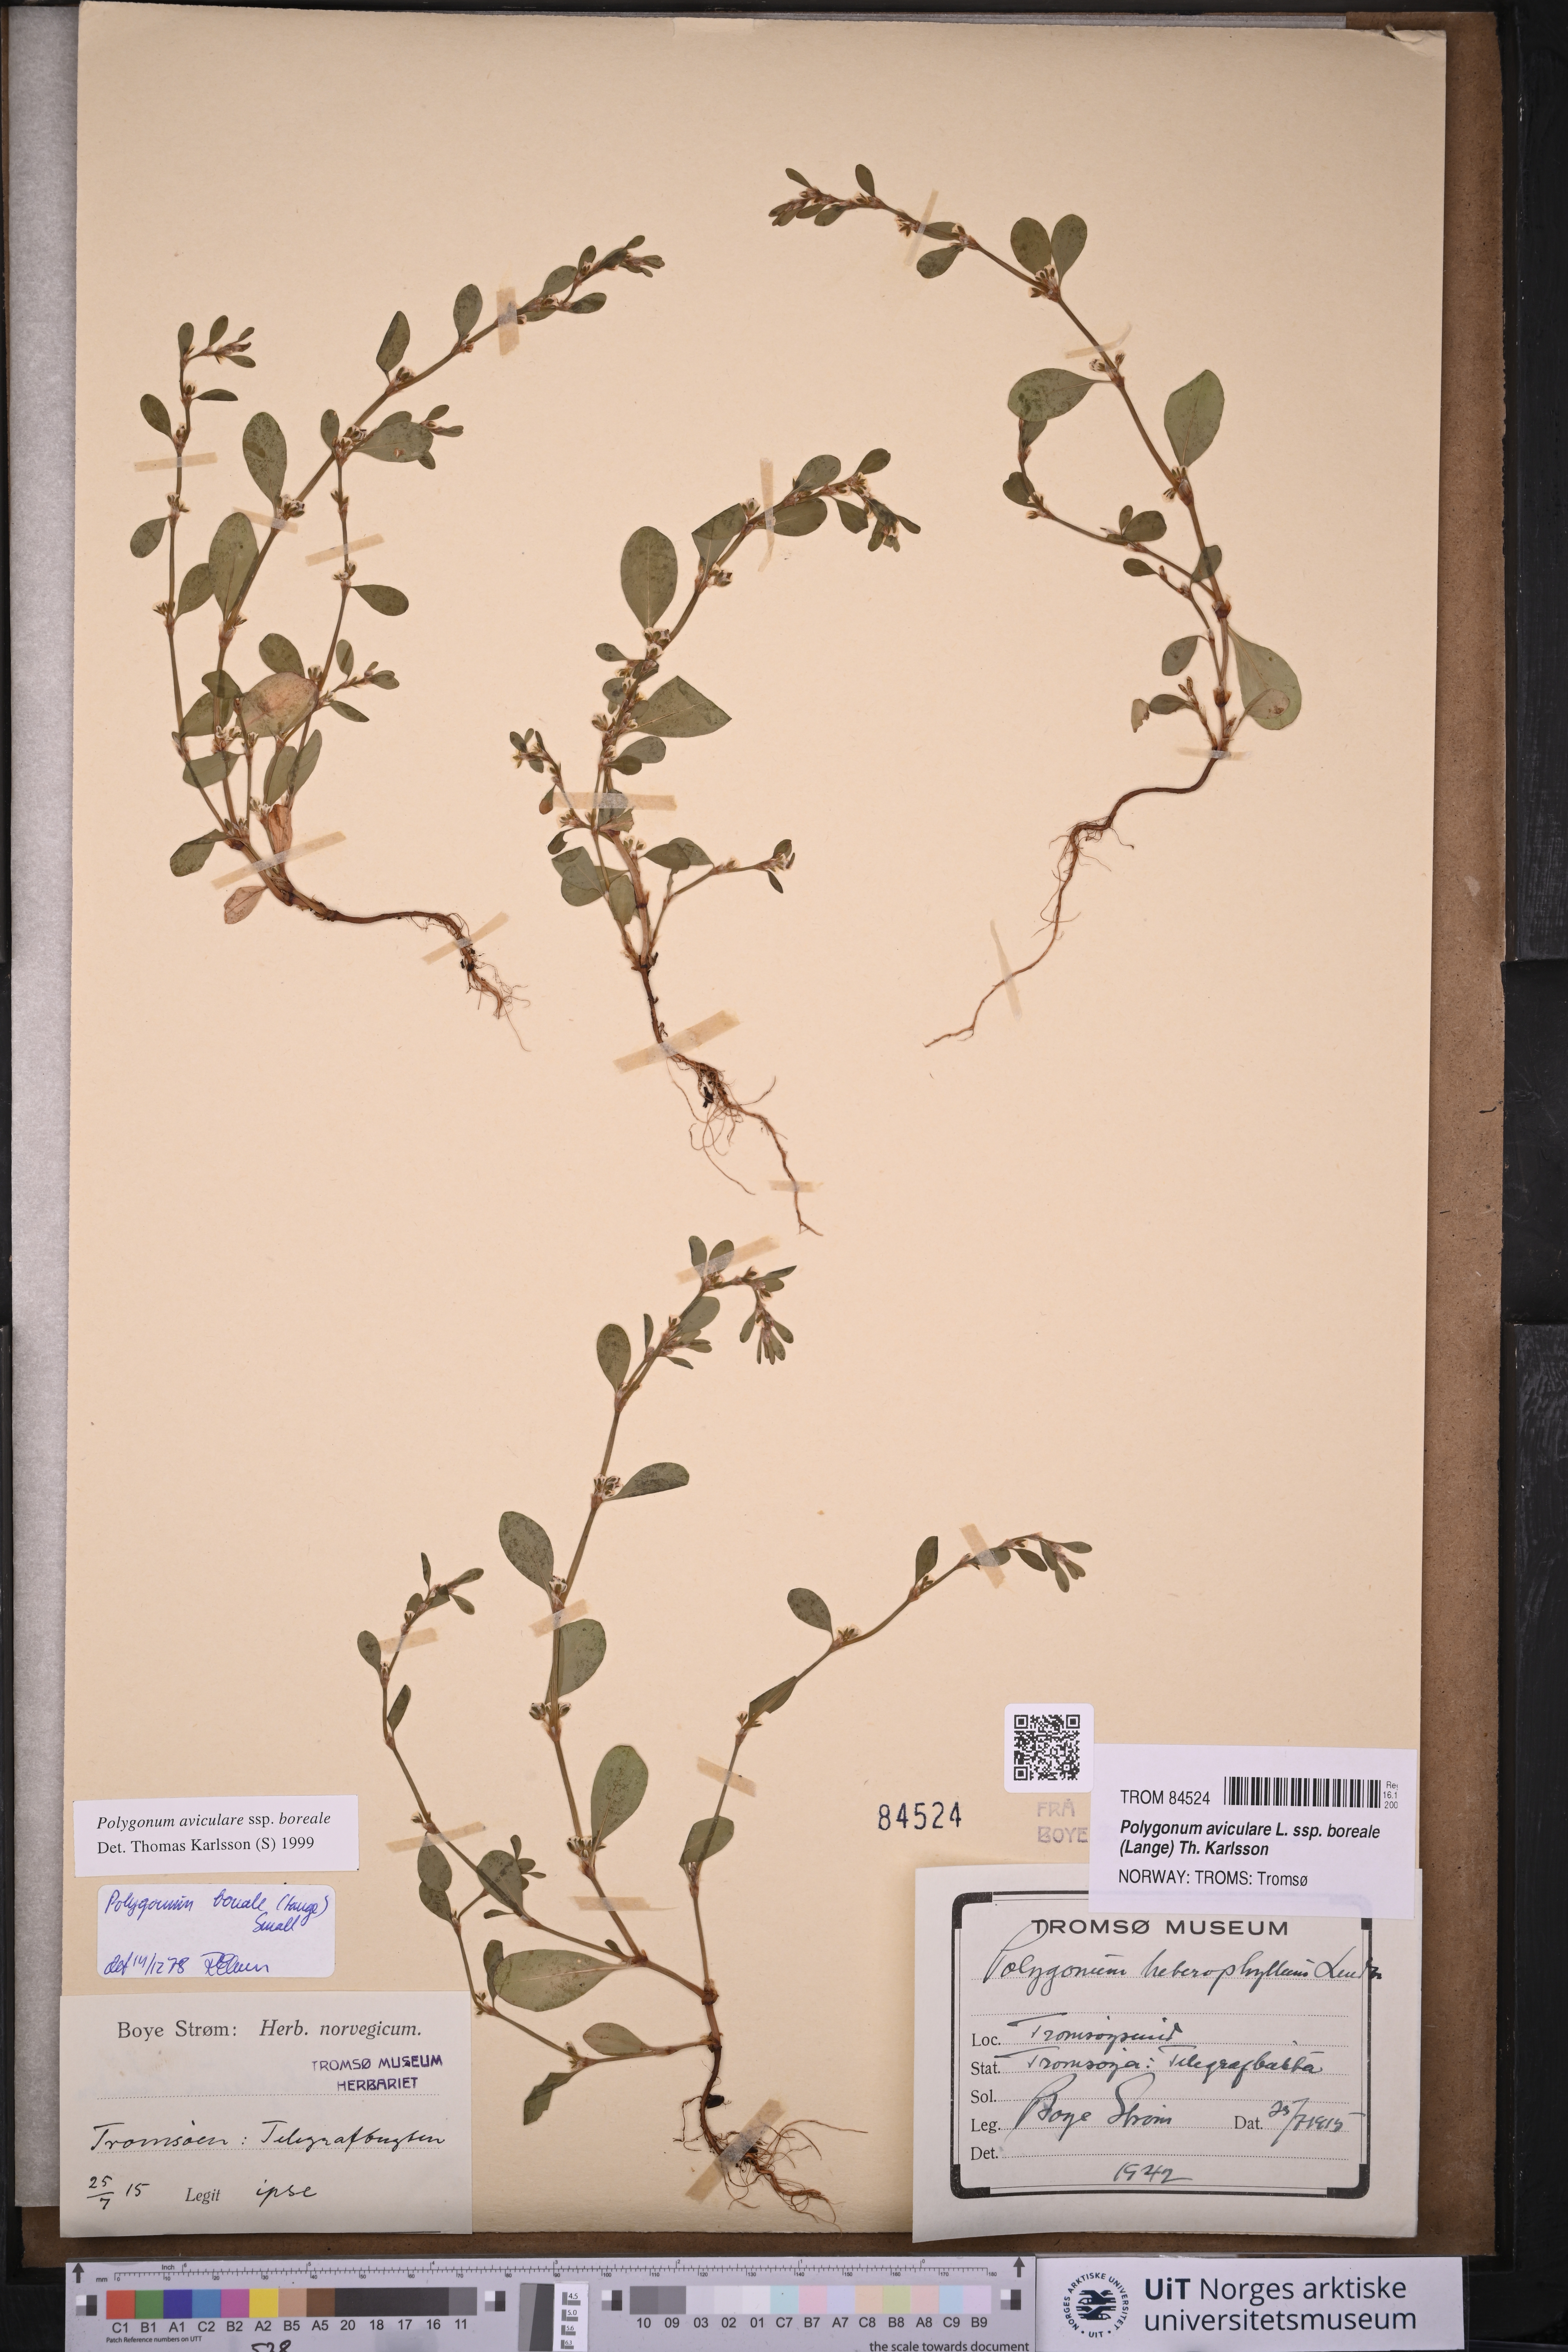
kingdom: Plantae
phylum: Tracheophyta
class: Magnoliopsida
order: Caryophyllales
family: Polygonaceae
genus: Polygonum
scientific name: Polygonum boreale
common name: Northern knotgrass
